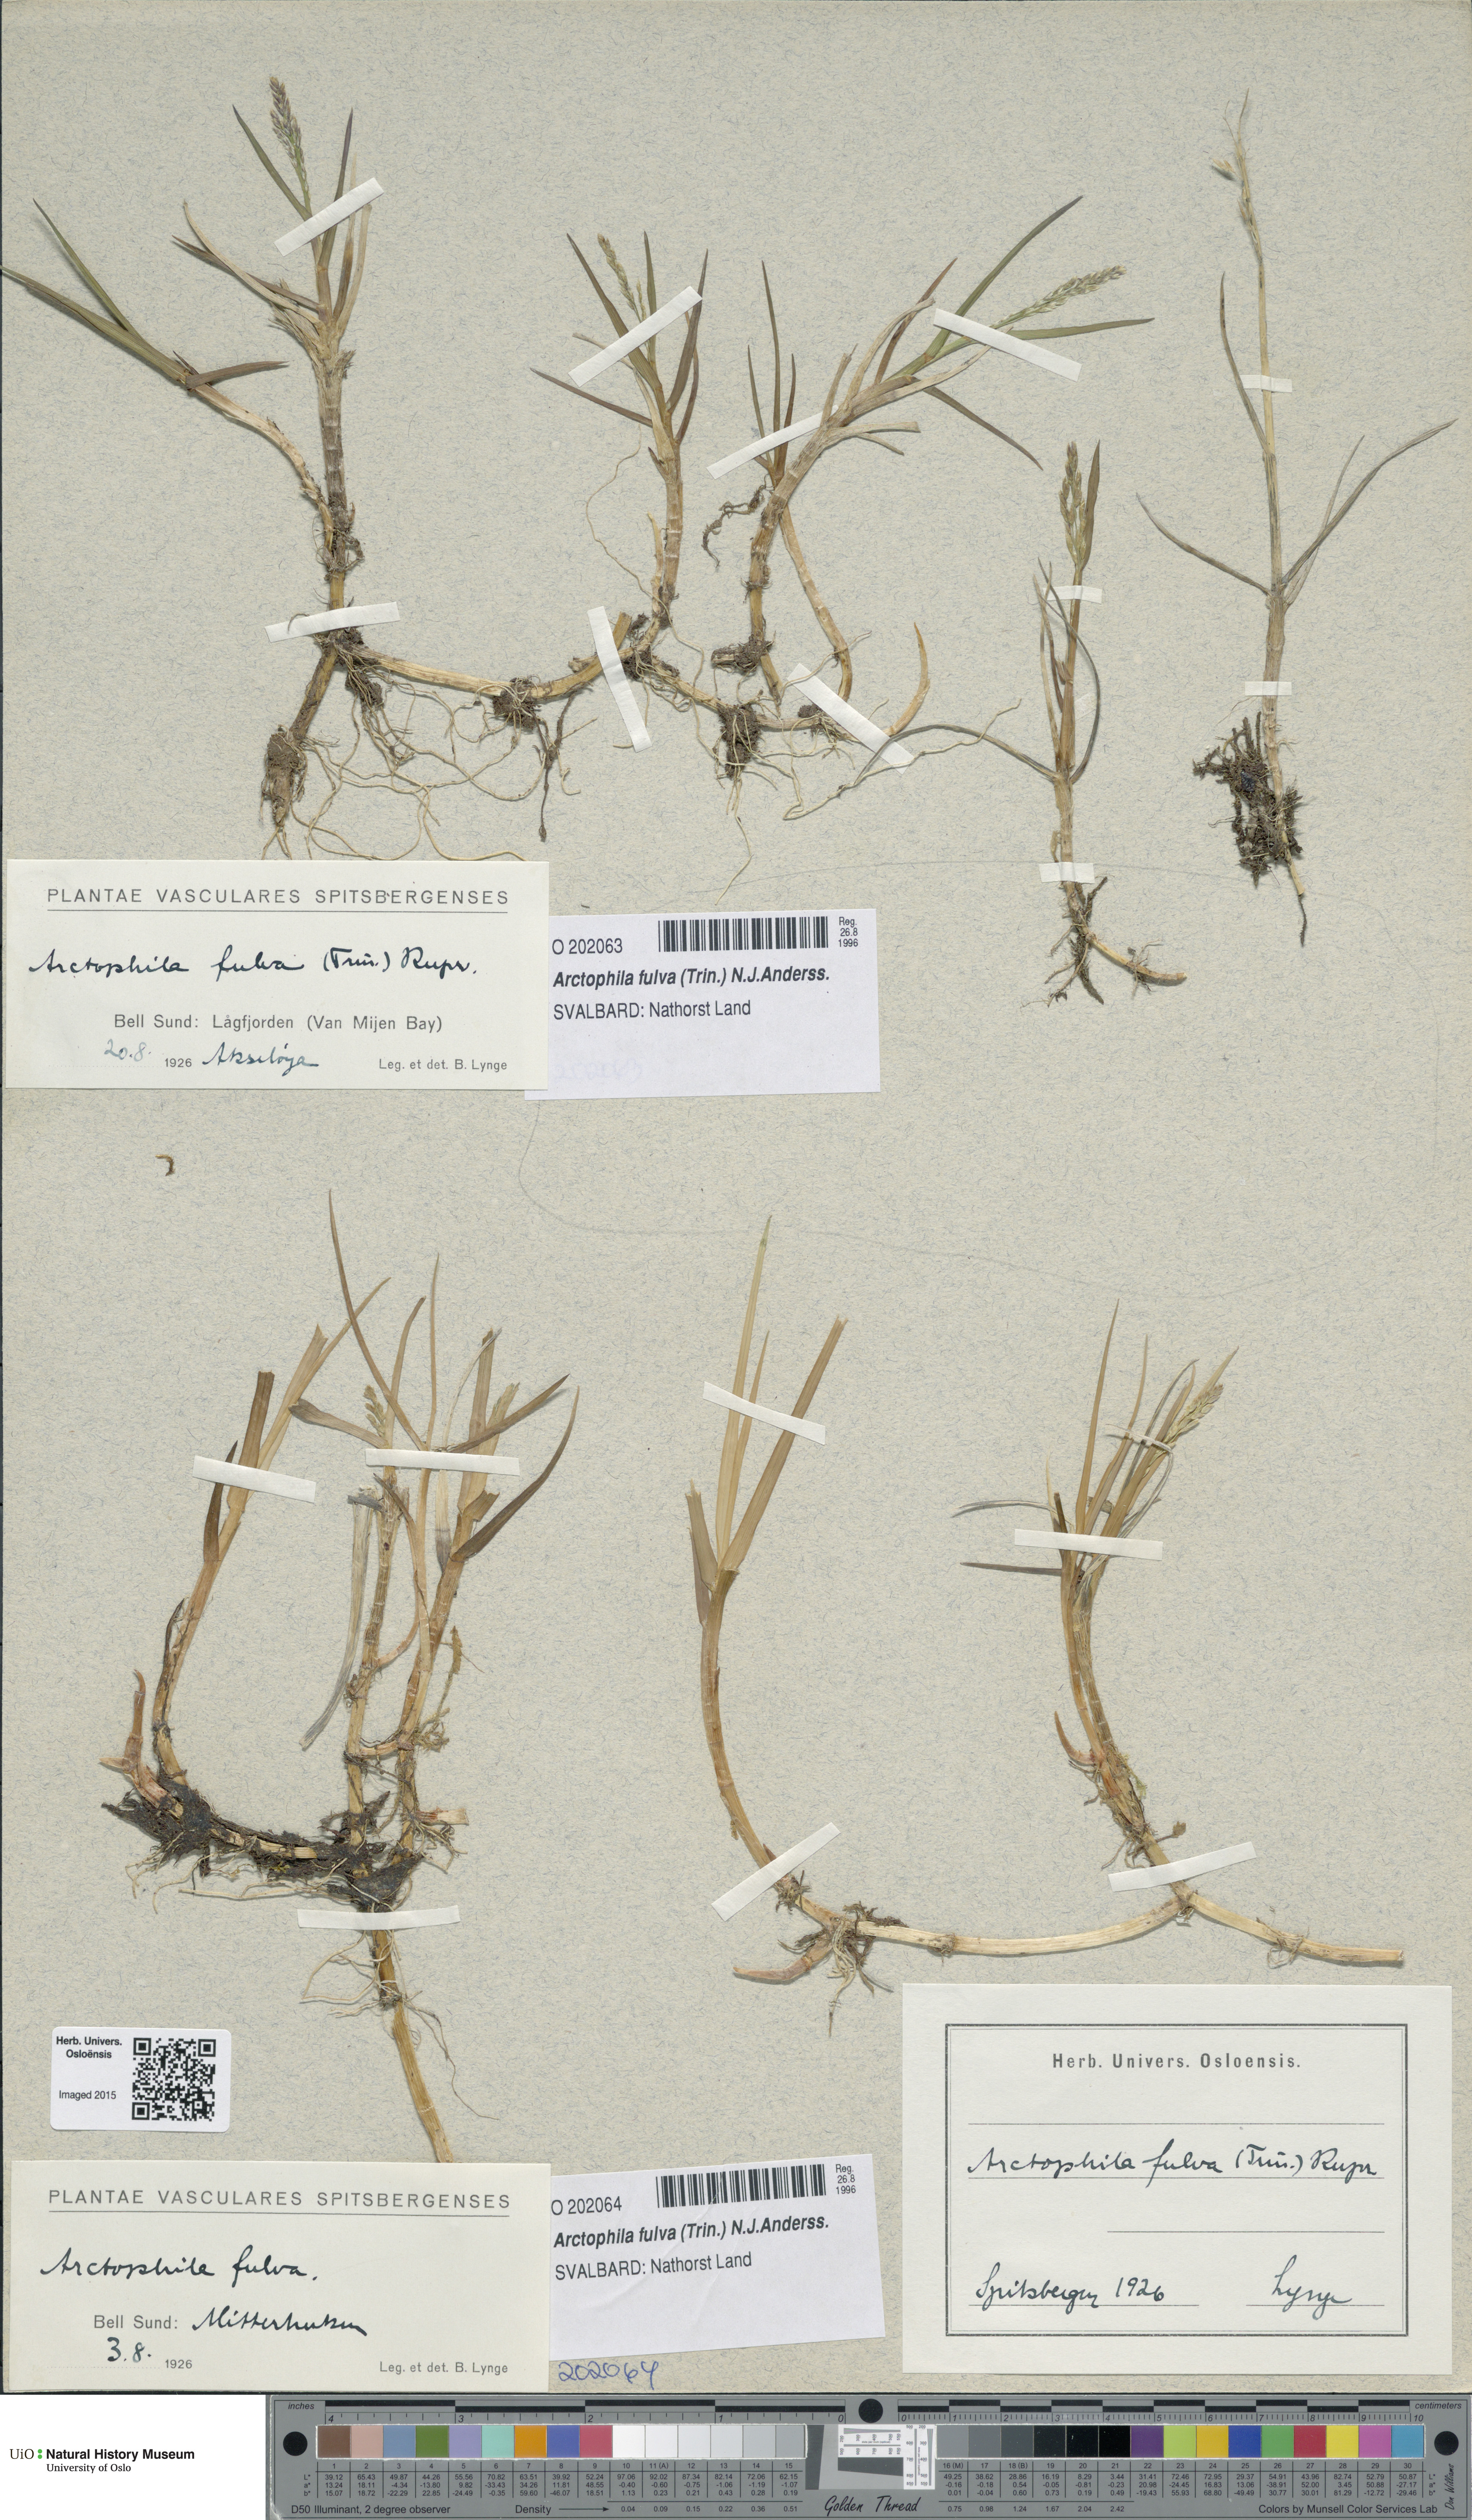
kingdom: Plantae
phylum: Tracheophyta
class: Liliopsida
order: Poales
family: Poaceae
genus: Dupontia
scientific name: Dupontia fulva
